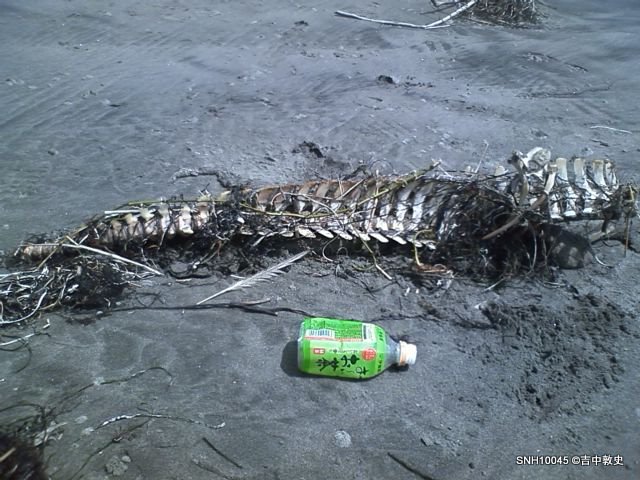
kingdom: Animalia
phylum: Chordata
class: Mammalia
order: Cetacea
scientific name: Cetacea
